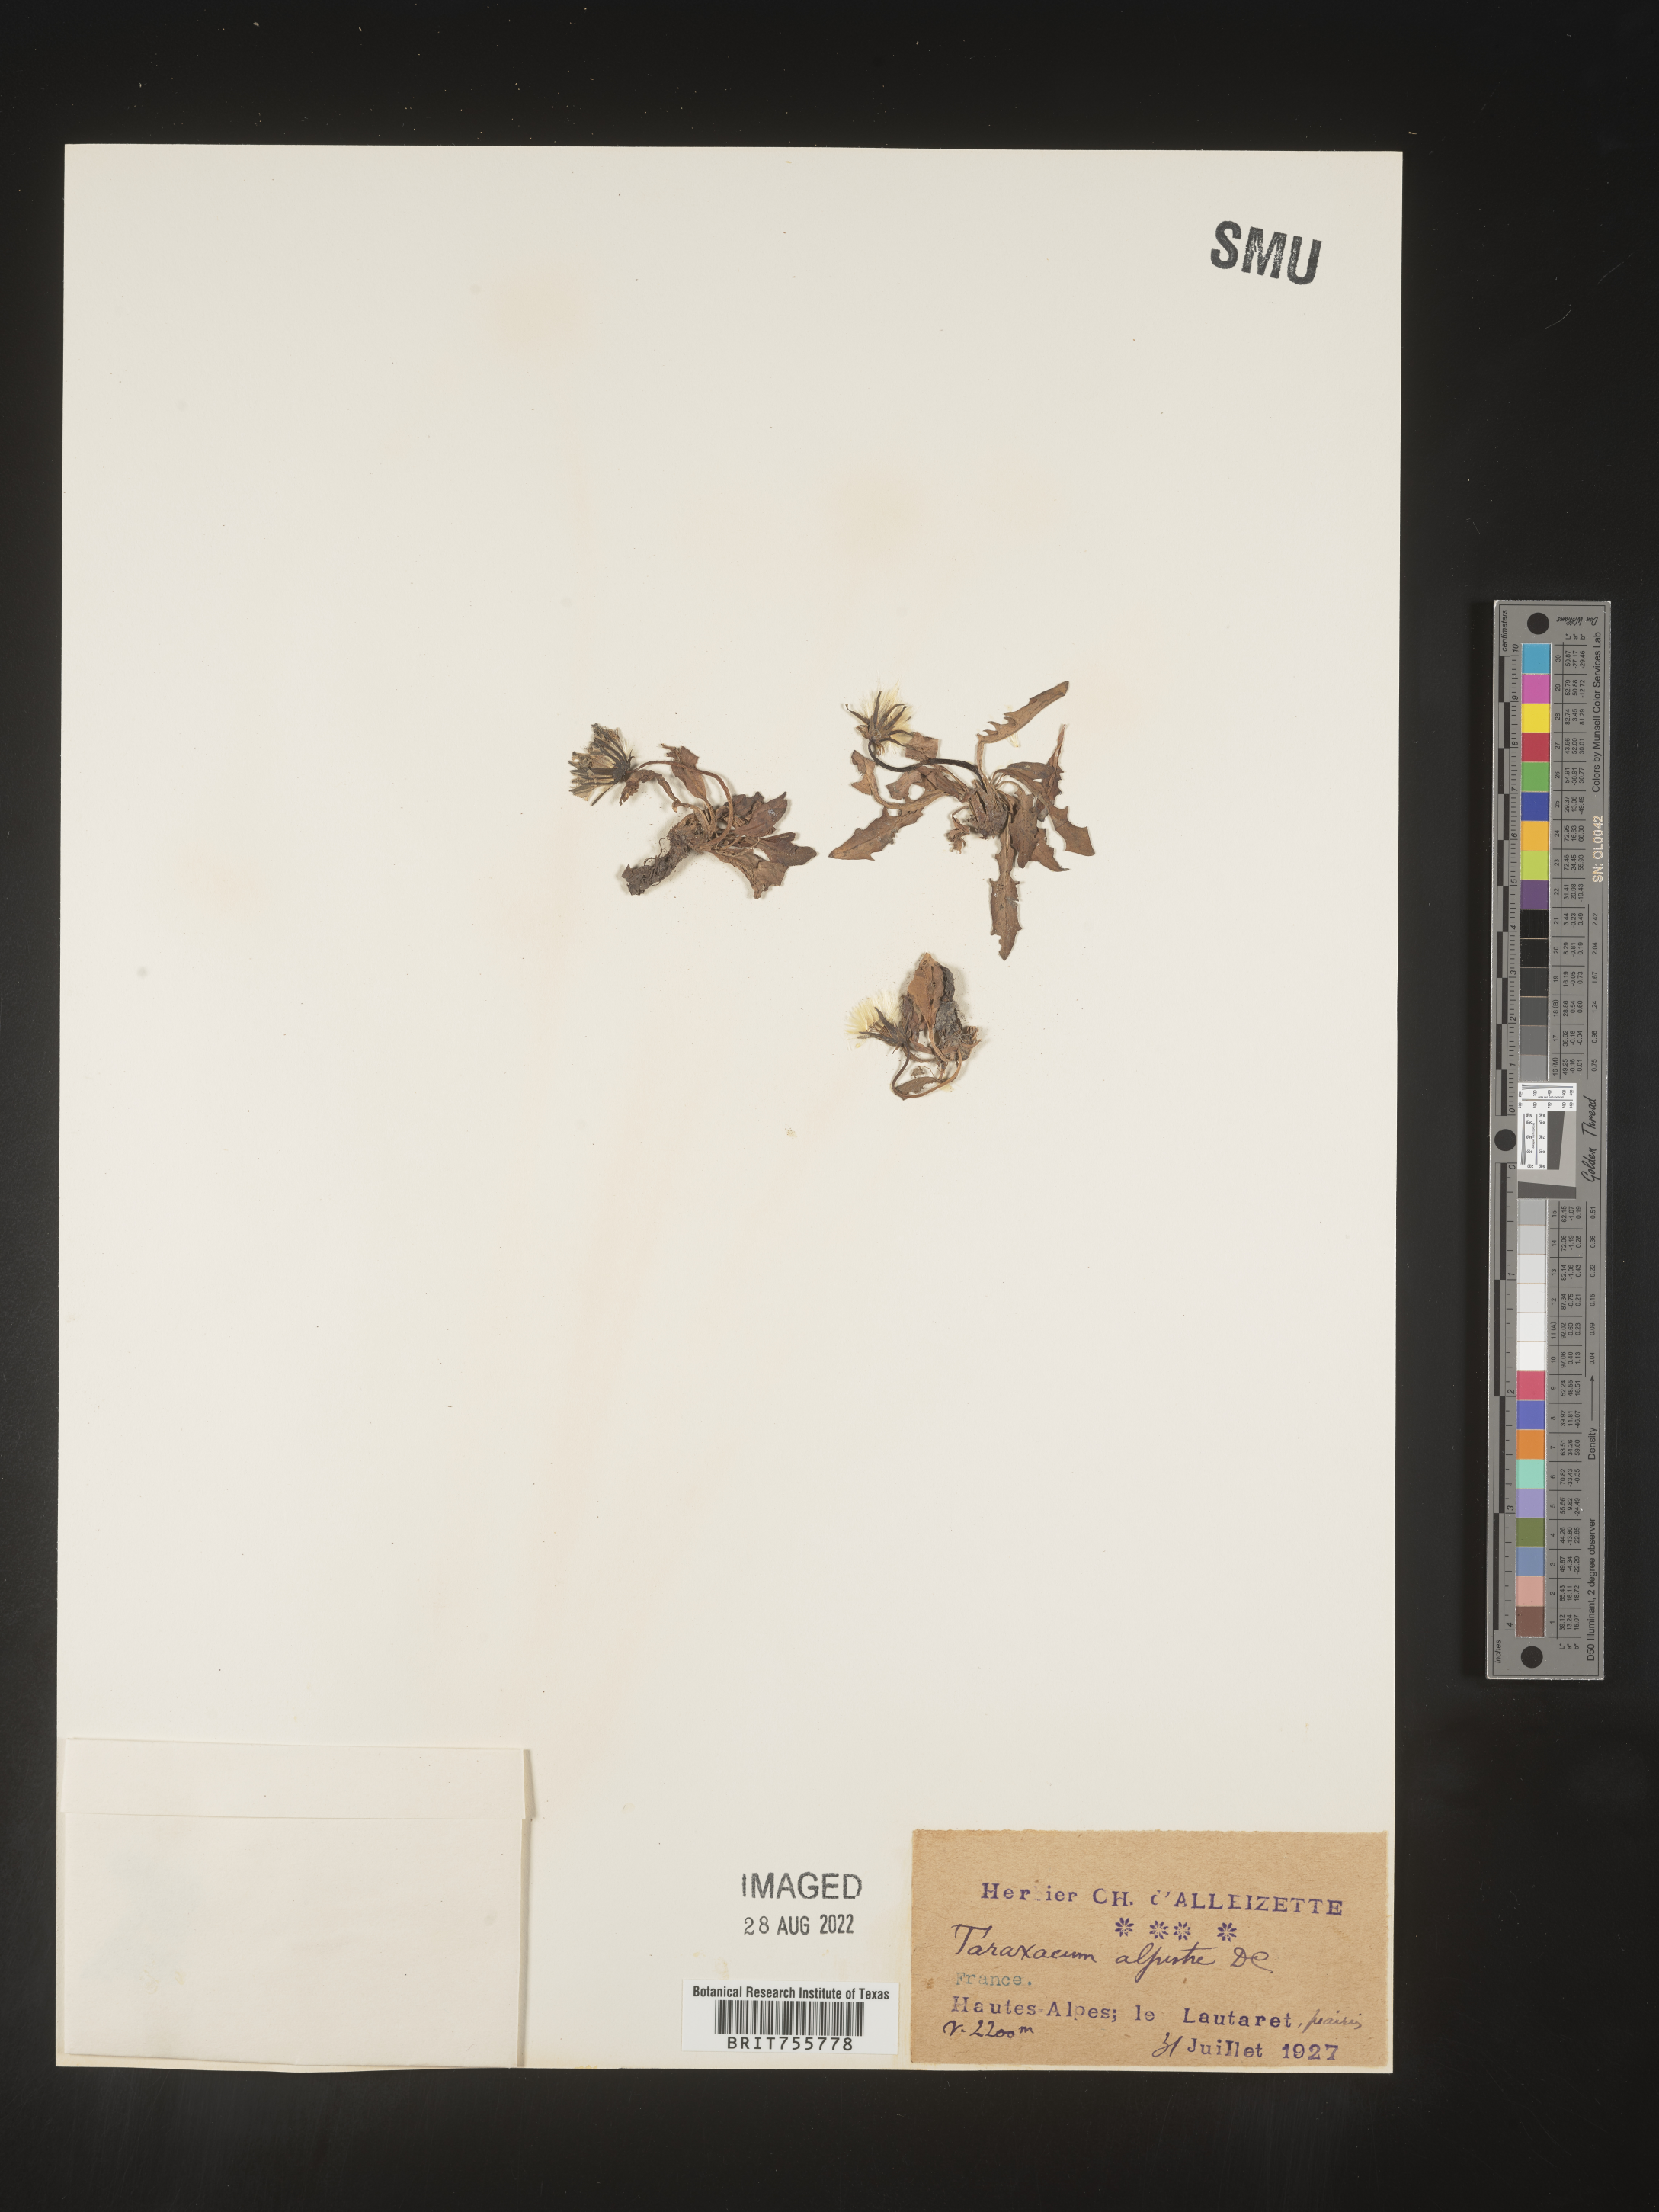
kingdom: Plantae
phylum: Tracheophyta
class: Magnoliopsida
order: Asterales
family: Asteraceae
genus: Taraxacum
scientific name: Taraxacum
